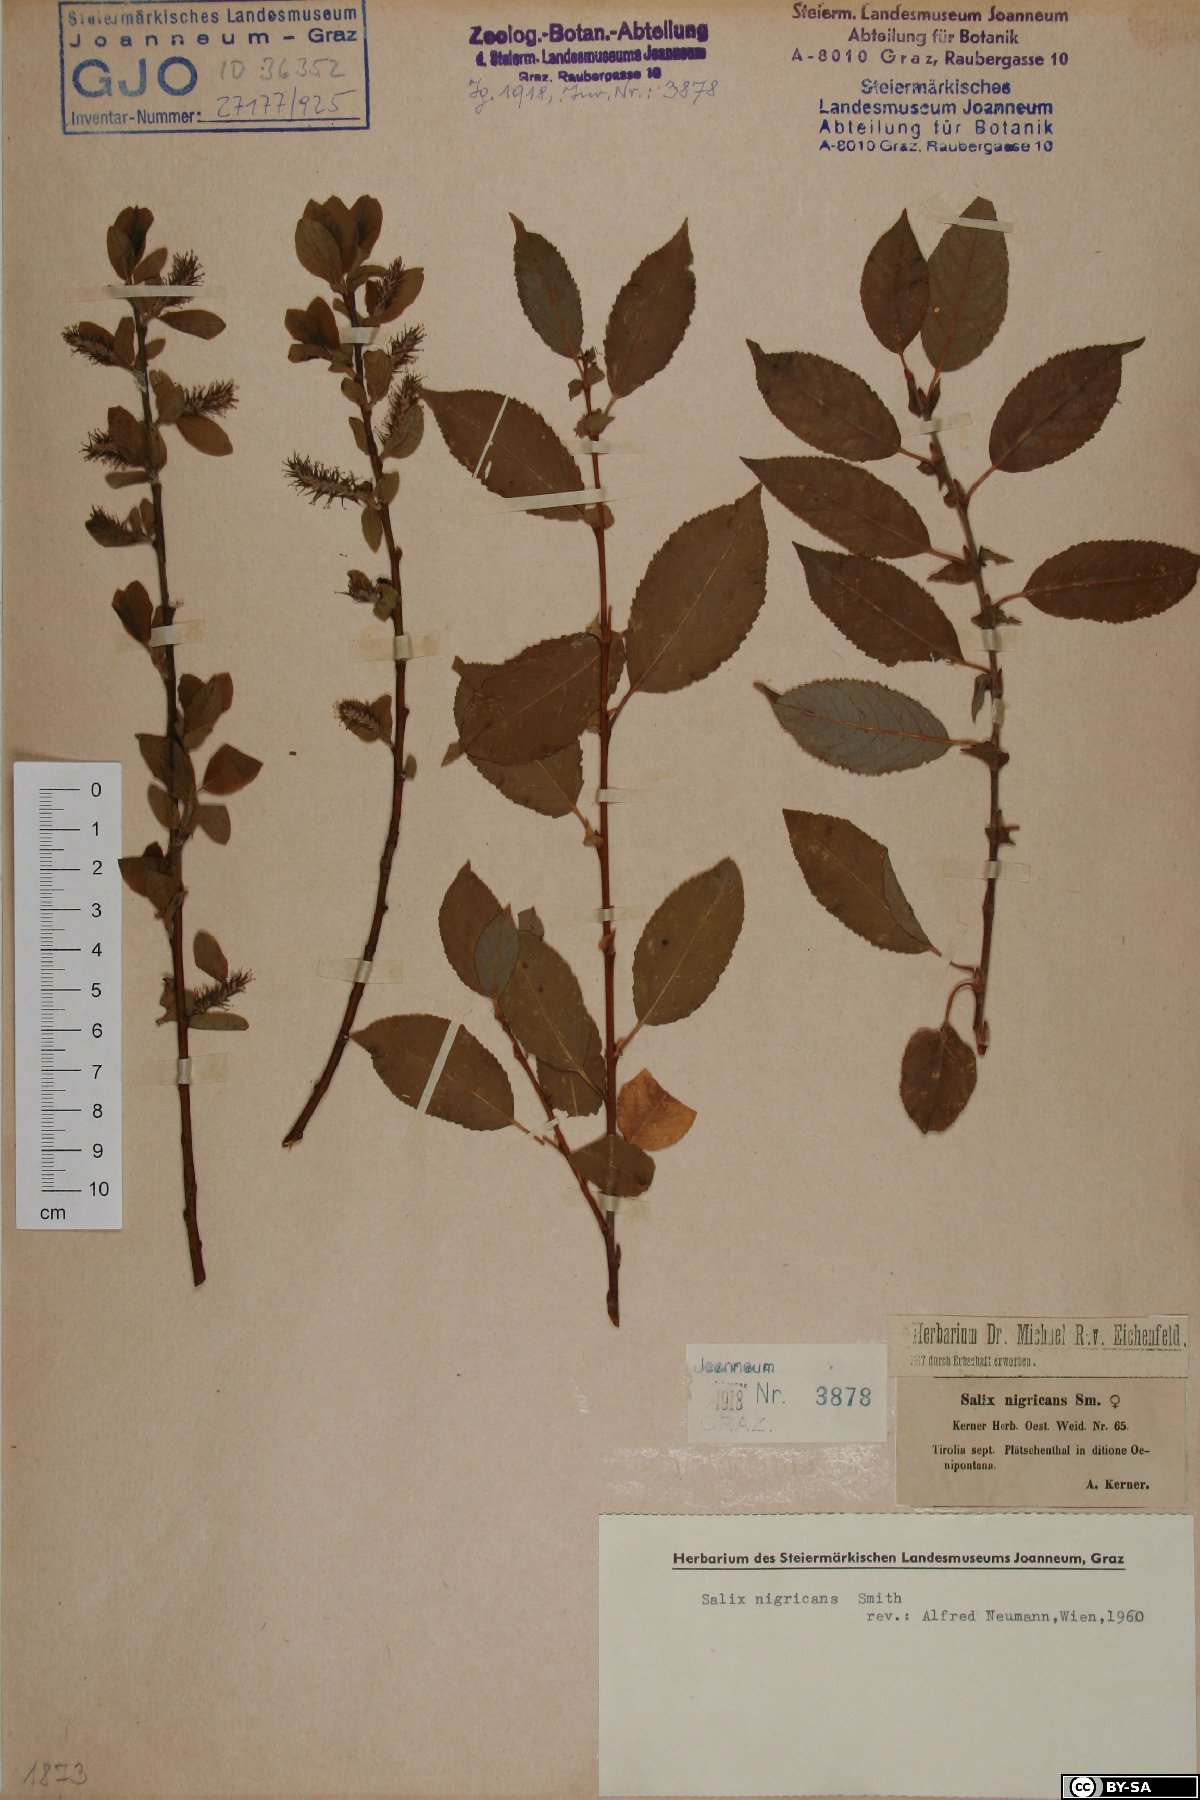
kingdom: Plantae
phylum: Tracheophyta
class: Magnoliopsida
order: Malpighiales
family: Salicaceae
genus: Salix
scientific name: Salix myrsinifolia
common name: Dark-leaved willow
